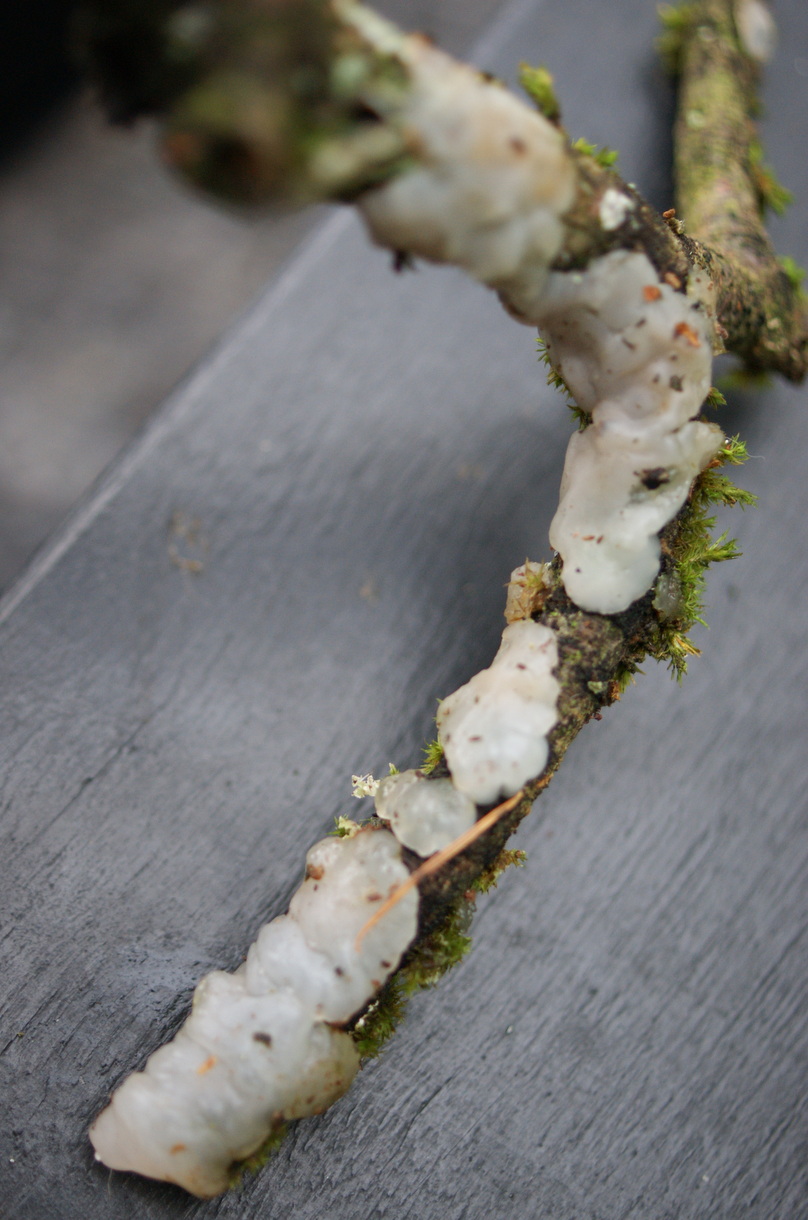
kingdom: Fungi
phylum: Basidiomycota
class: Agaricomycetes
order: Auriculariales
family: Auriculariaceae
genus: Exidia
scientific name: Exidia thuretiana
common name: hvidlig bævretop
